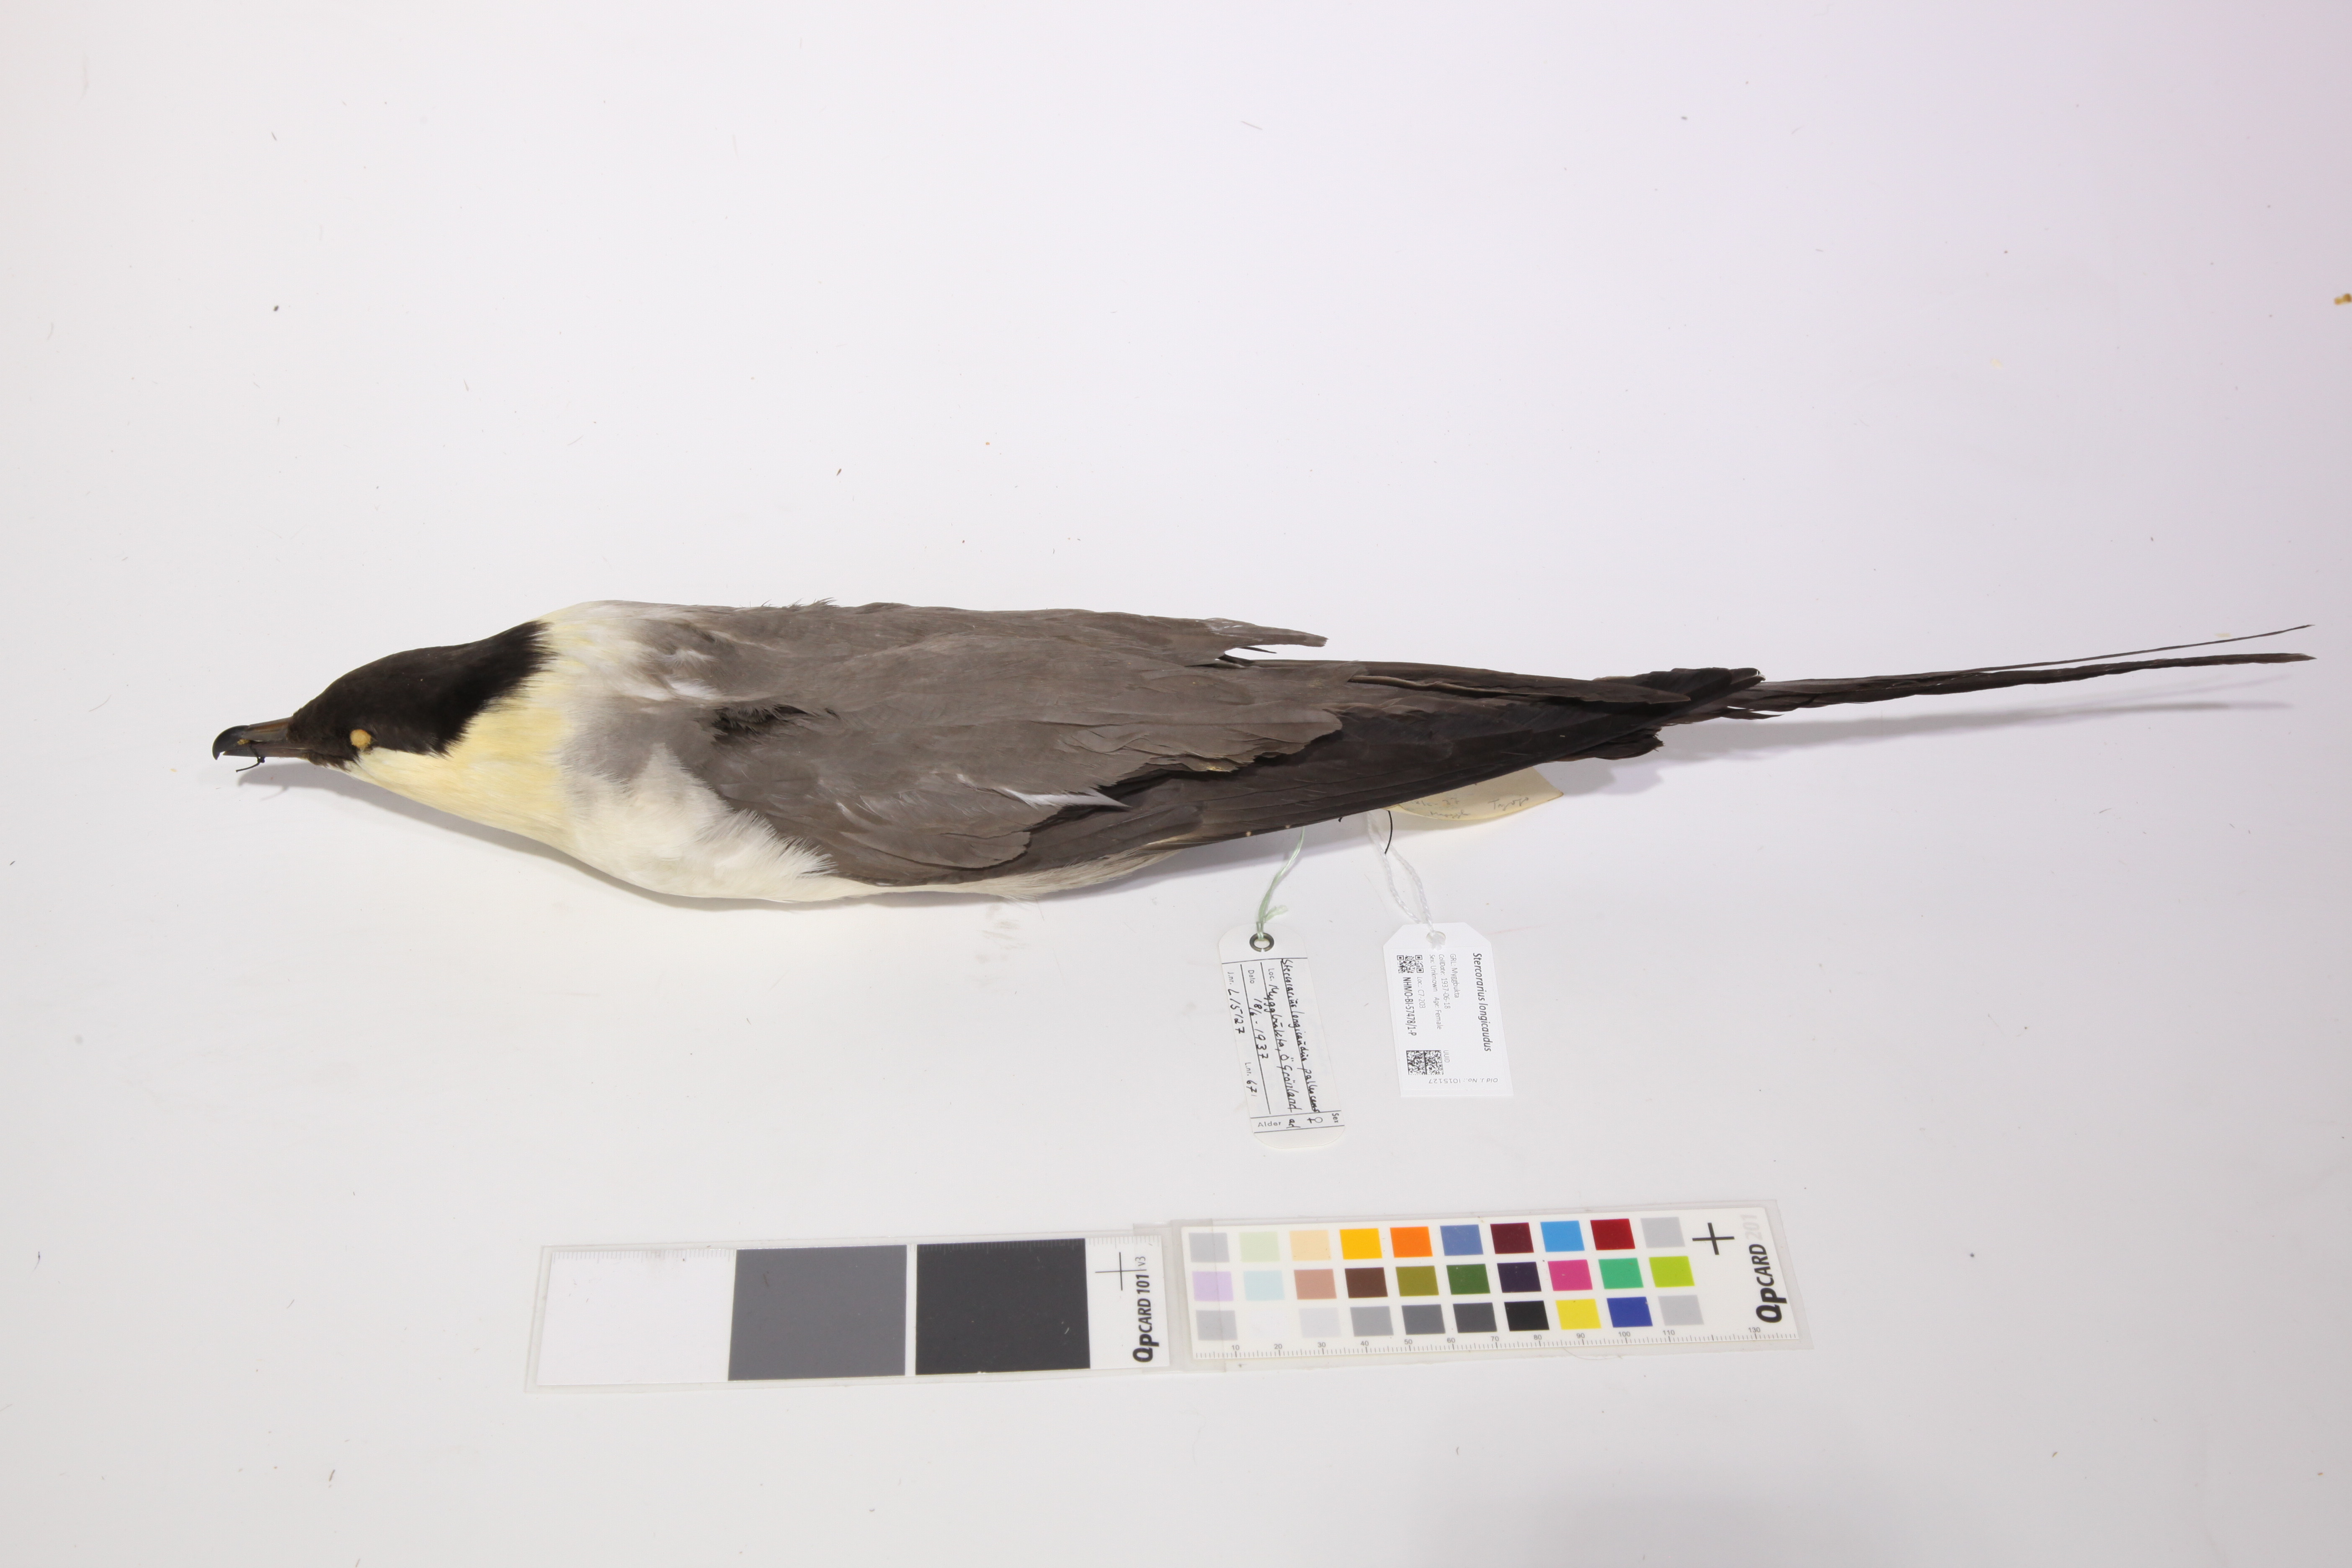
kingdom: Animalia
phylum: Chordata
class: Aves
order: Charadriiformes
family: Stercorariidae
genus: Stercorarius
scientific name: Stercorarius longicaudus
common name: Long-tailed jaeger
